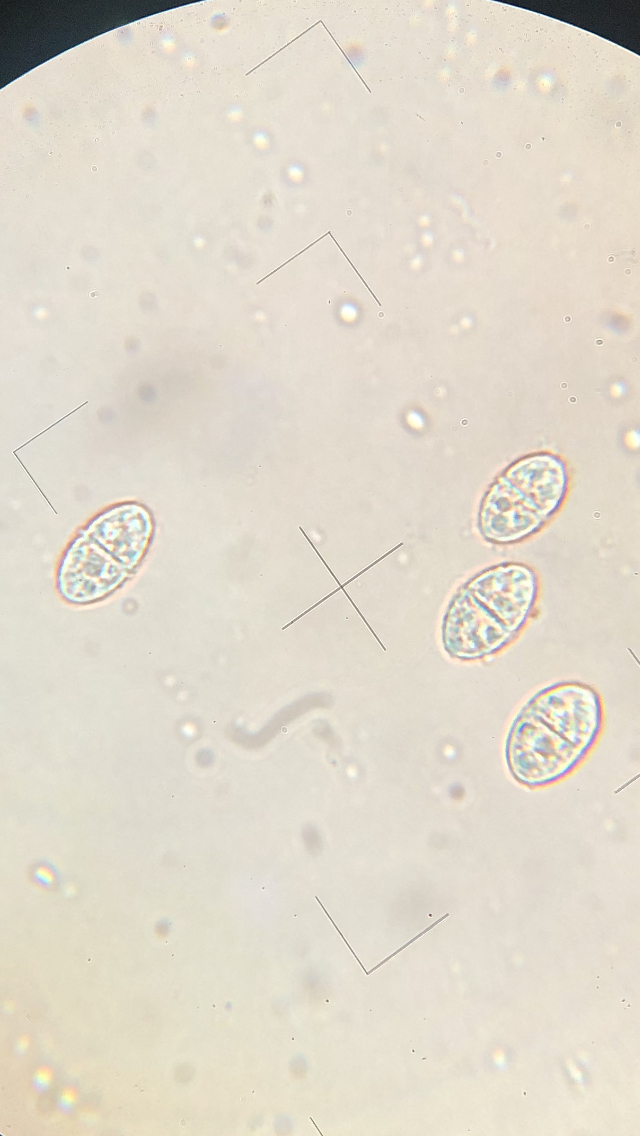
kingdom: Fungi
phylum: Ascomycota
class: Sordariomycetes
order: Hypocreales
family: Nectriaceae
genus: Dialonectria
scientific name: Dialonectria diatrypellicola
